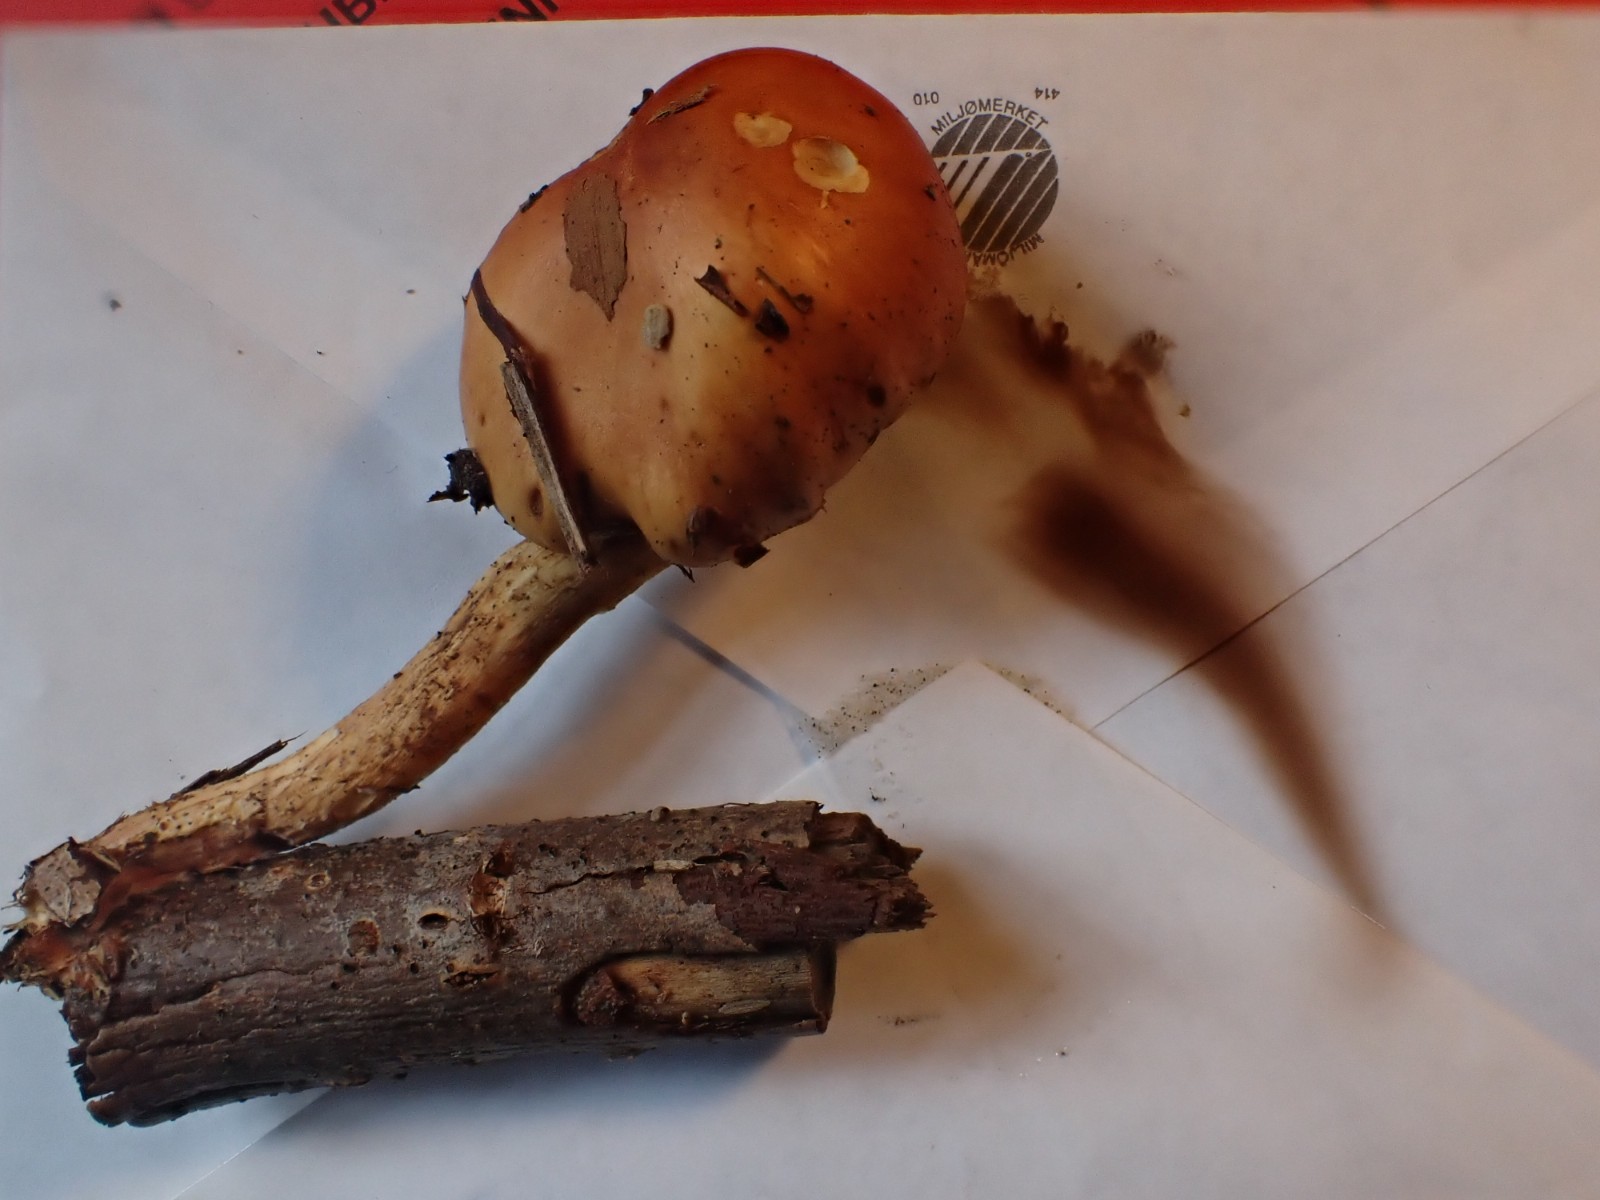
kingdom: Fungi
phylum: Basidiomycota
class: Agaricomycetes
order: Agaricales
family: Strophariaceae
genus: Pholiota
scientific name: Pholiota spumosa
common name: gran-skælhat
